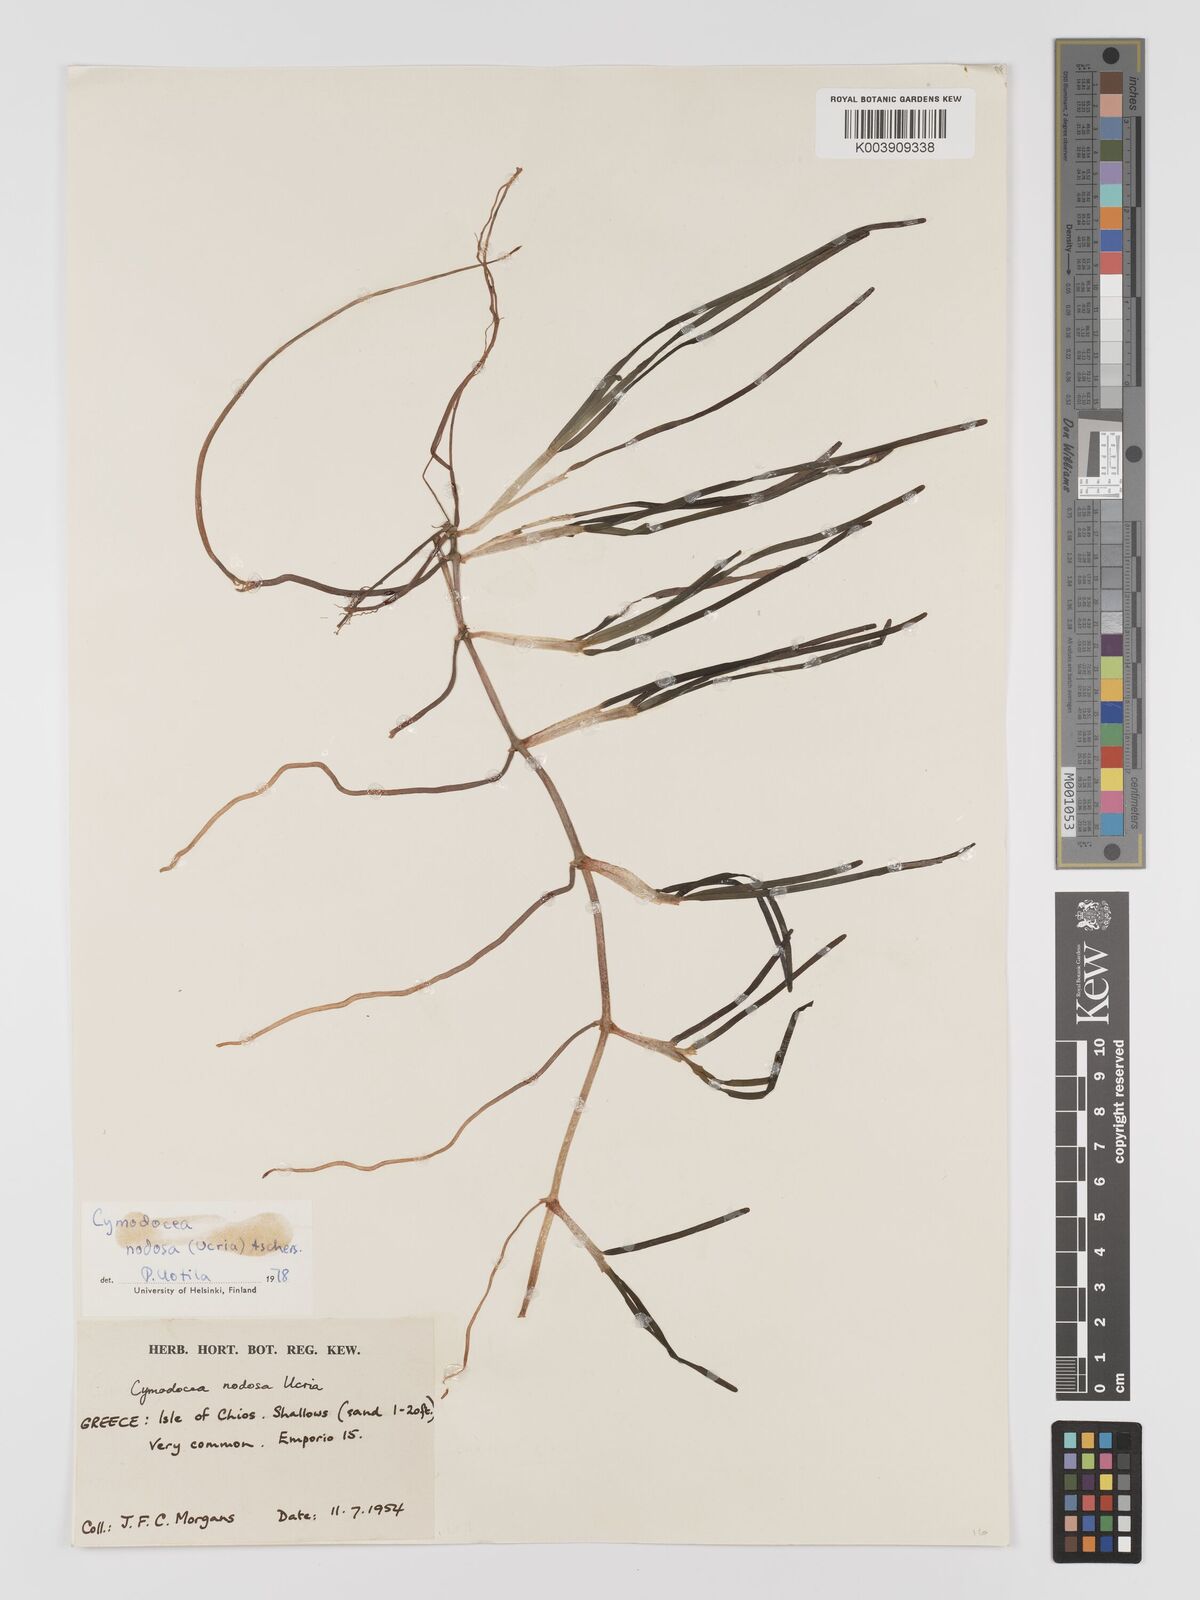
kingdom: Plantae
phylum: Tracheophyta
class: Liliopsida
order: Alismatales
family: Cymodoceaceae
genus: Cymodocea
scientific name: Cymodocea nodosa
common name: Slender seagrass
